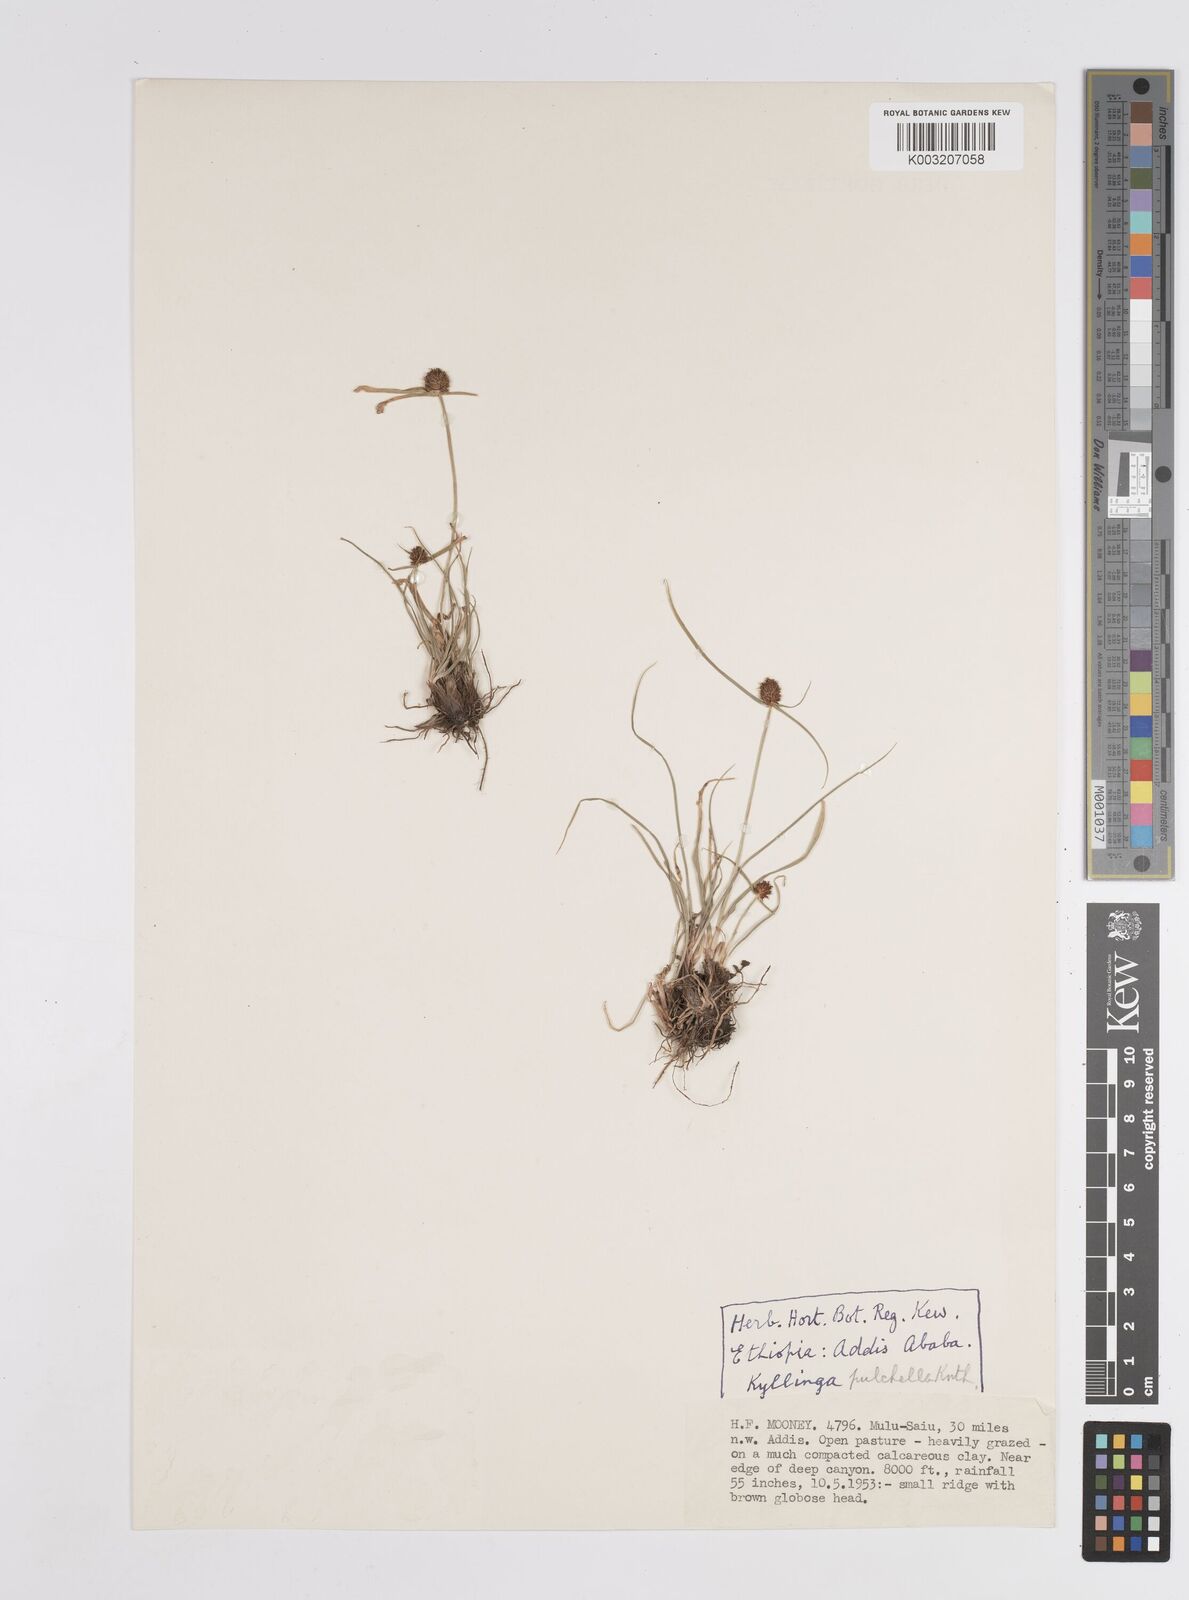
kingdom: Plantae
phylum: Tracheophyta
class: Liliopsida
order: Poales
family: Cyperaceae
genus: Cyperus
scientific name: Cyperus bracheilema
